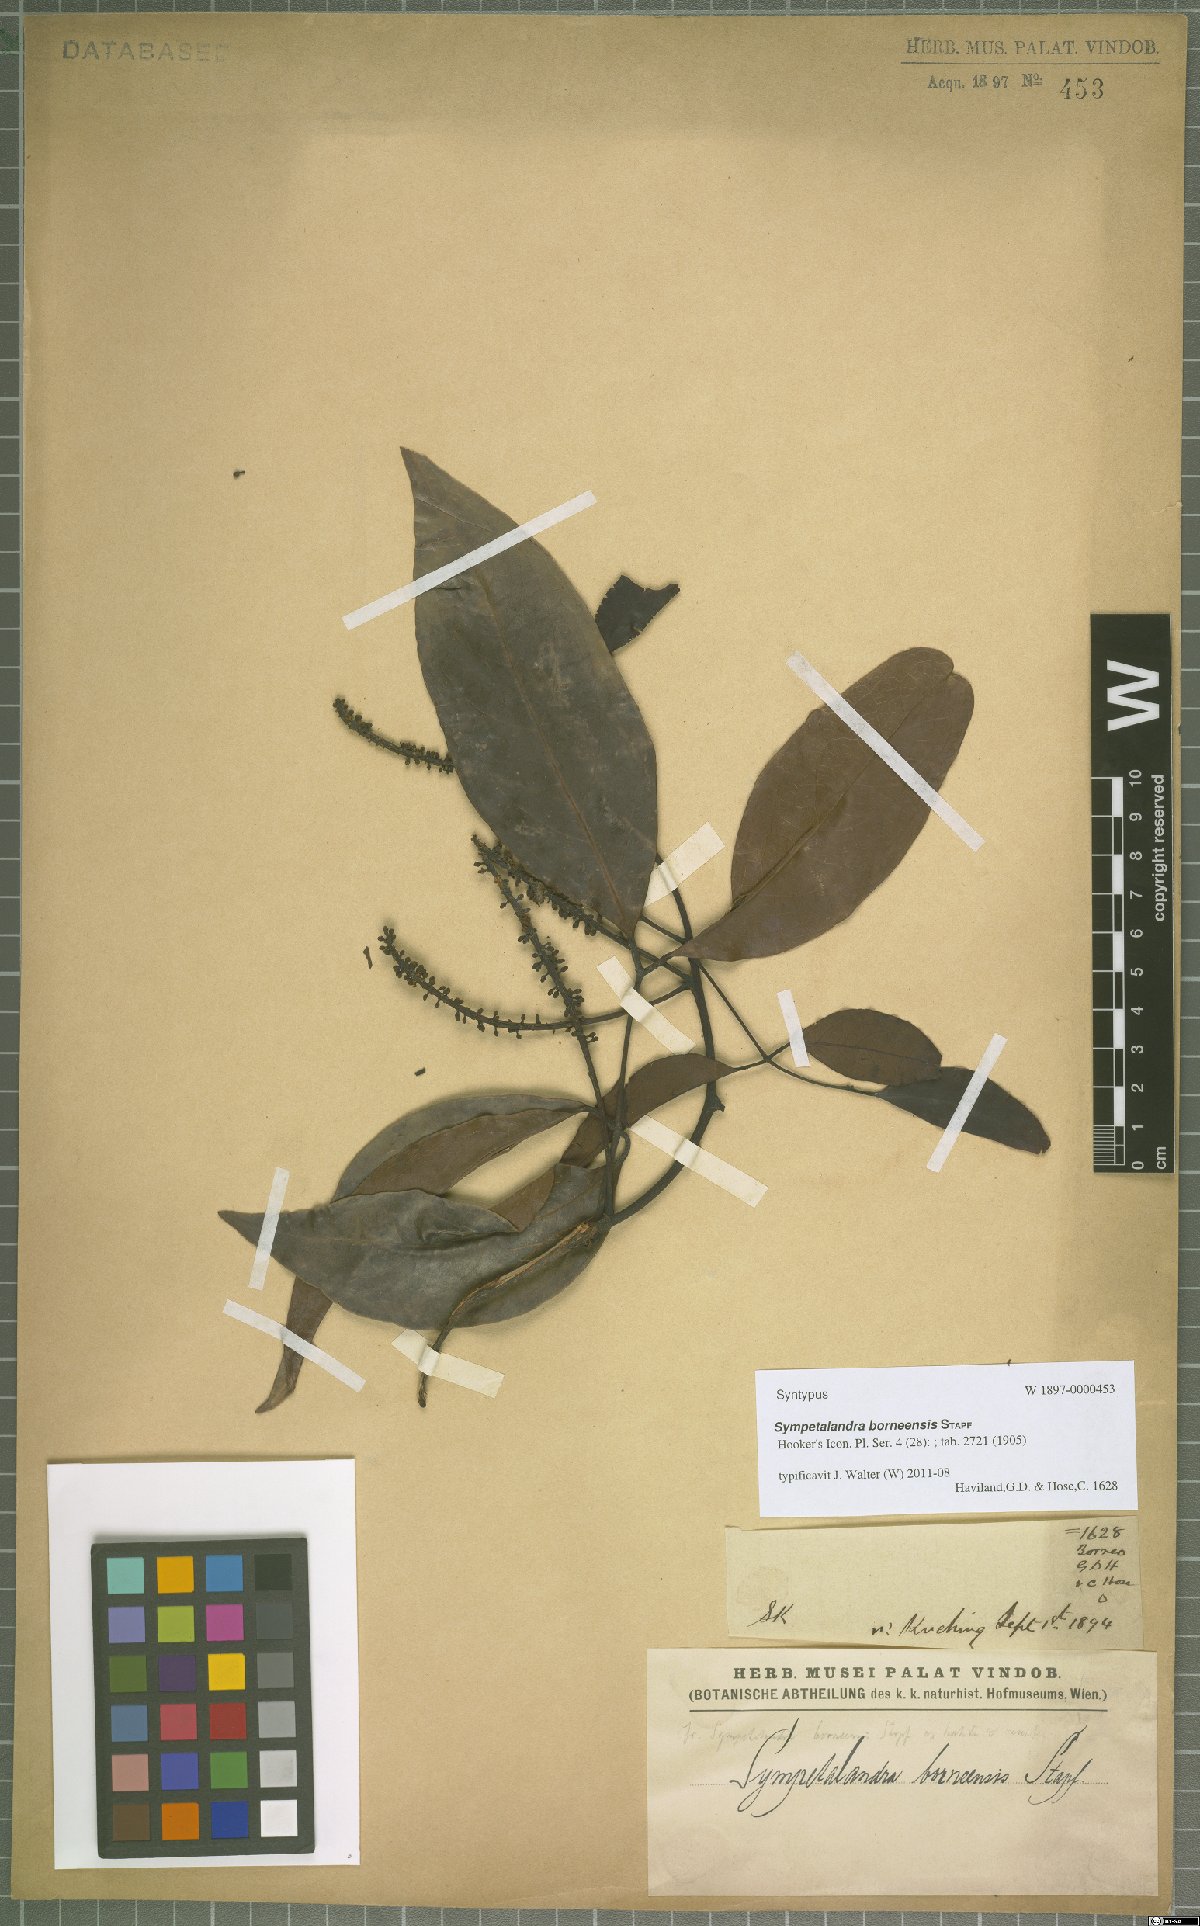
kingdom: Plantae
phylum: Tracheophyta
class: Magnoliopsida
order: Fabales
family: Fabaceae
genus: Sympetalandra
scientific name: Sympetalandra borneensis
